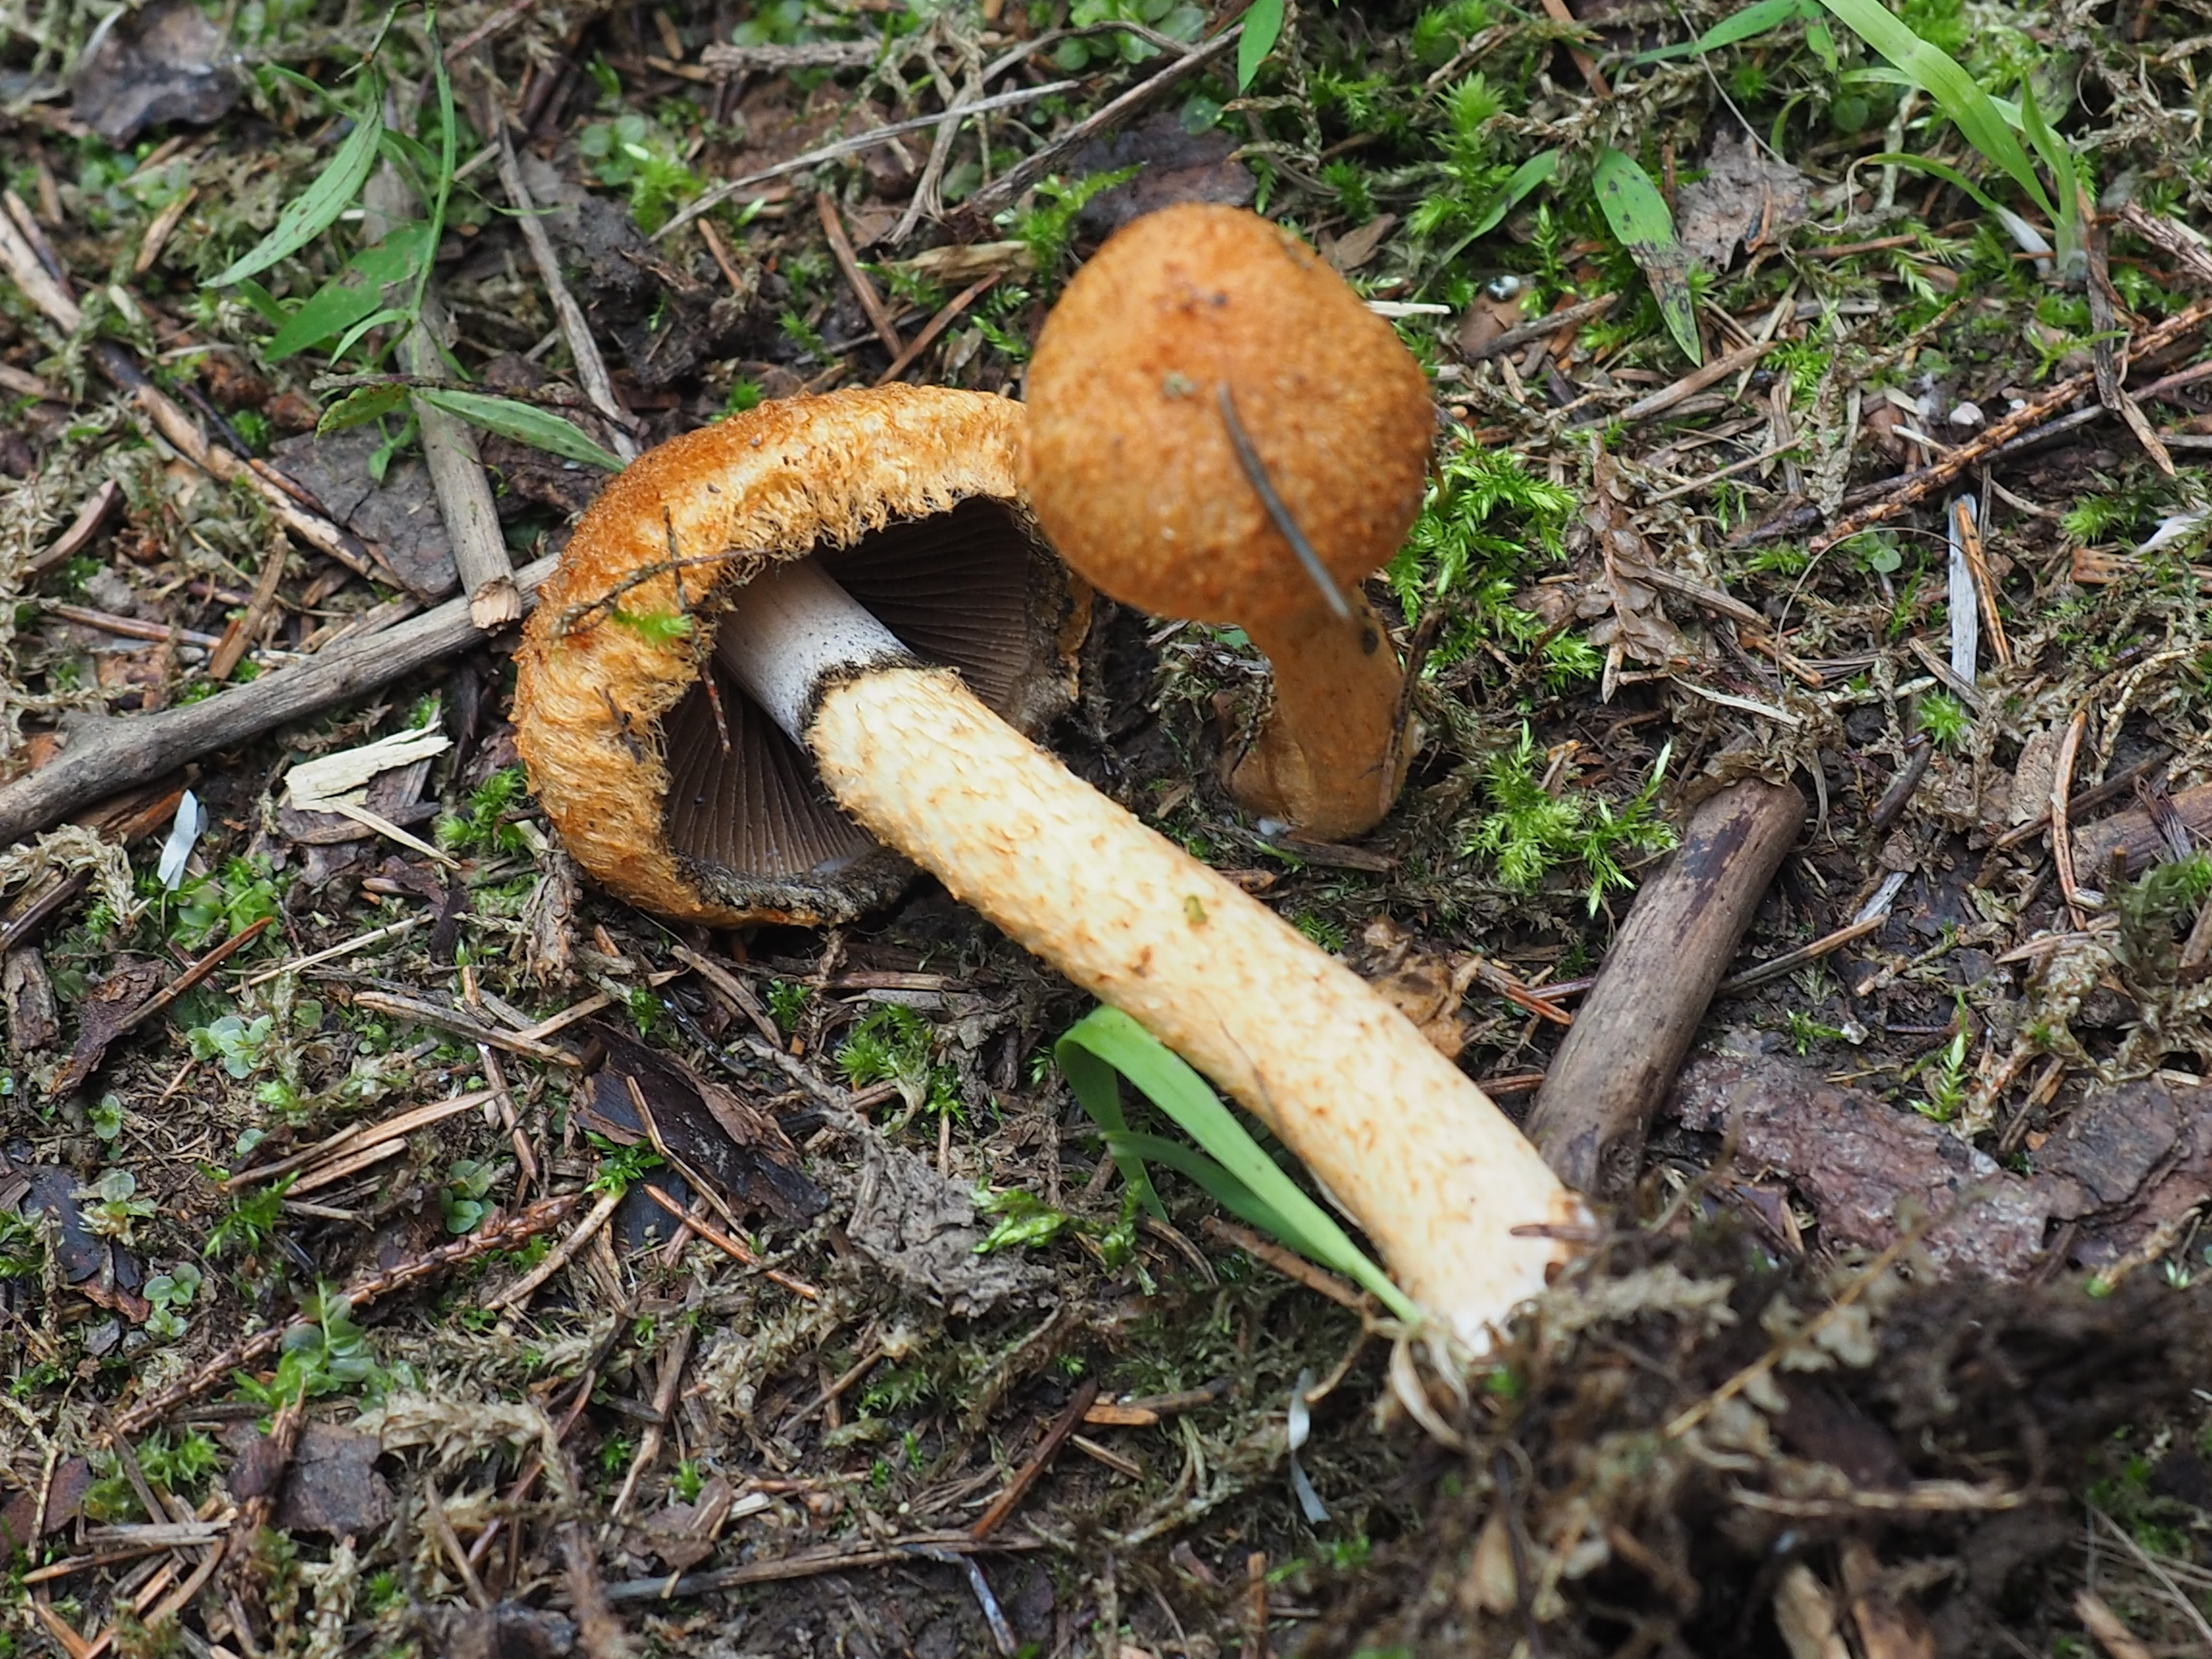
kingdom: Fungi
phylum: Basidiomycota
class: Agaricomycetes
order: Agaricales
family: Psathyrellaceae
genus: Lacrymaria
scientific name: Lacrymaria pyrotricha
